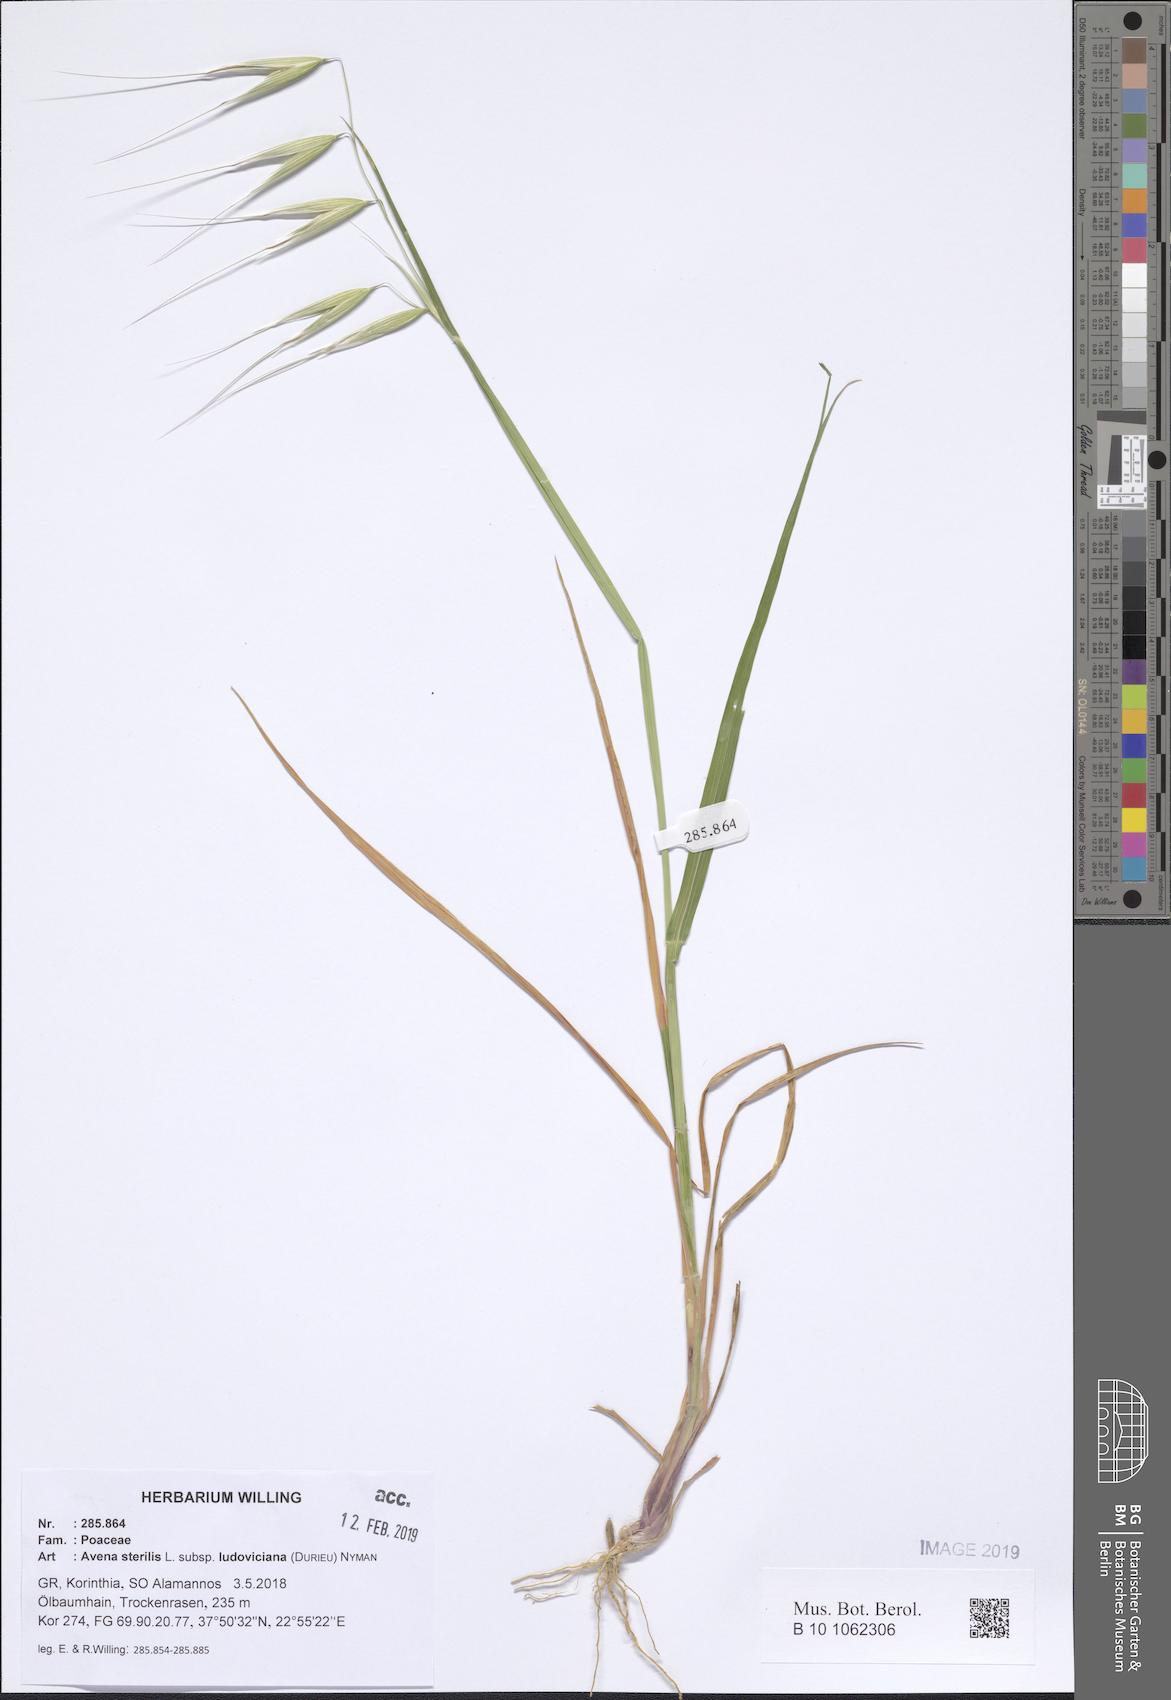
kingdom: Plantae
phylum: Tracheophyta
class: Liliopsida
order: Poales
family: Poaceae
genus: Avena
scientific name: Avena sterilis
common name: Animated oat
